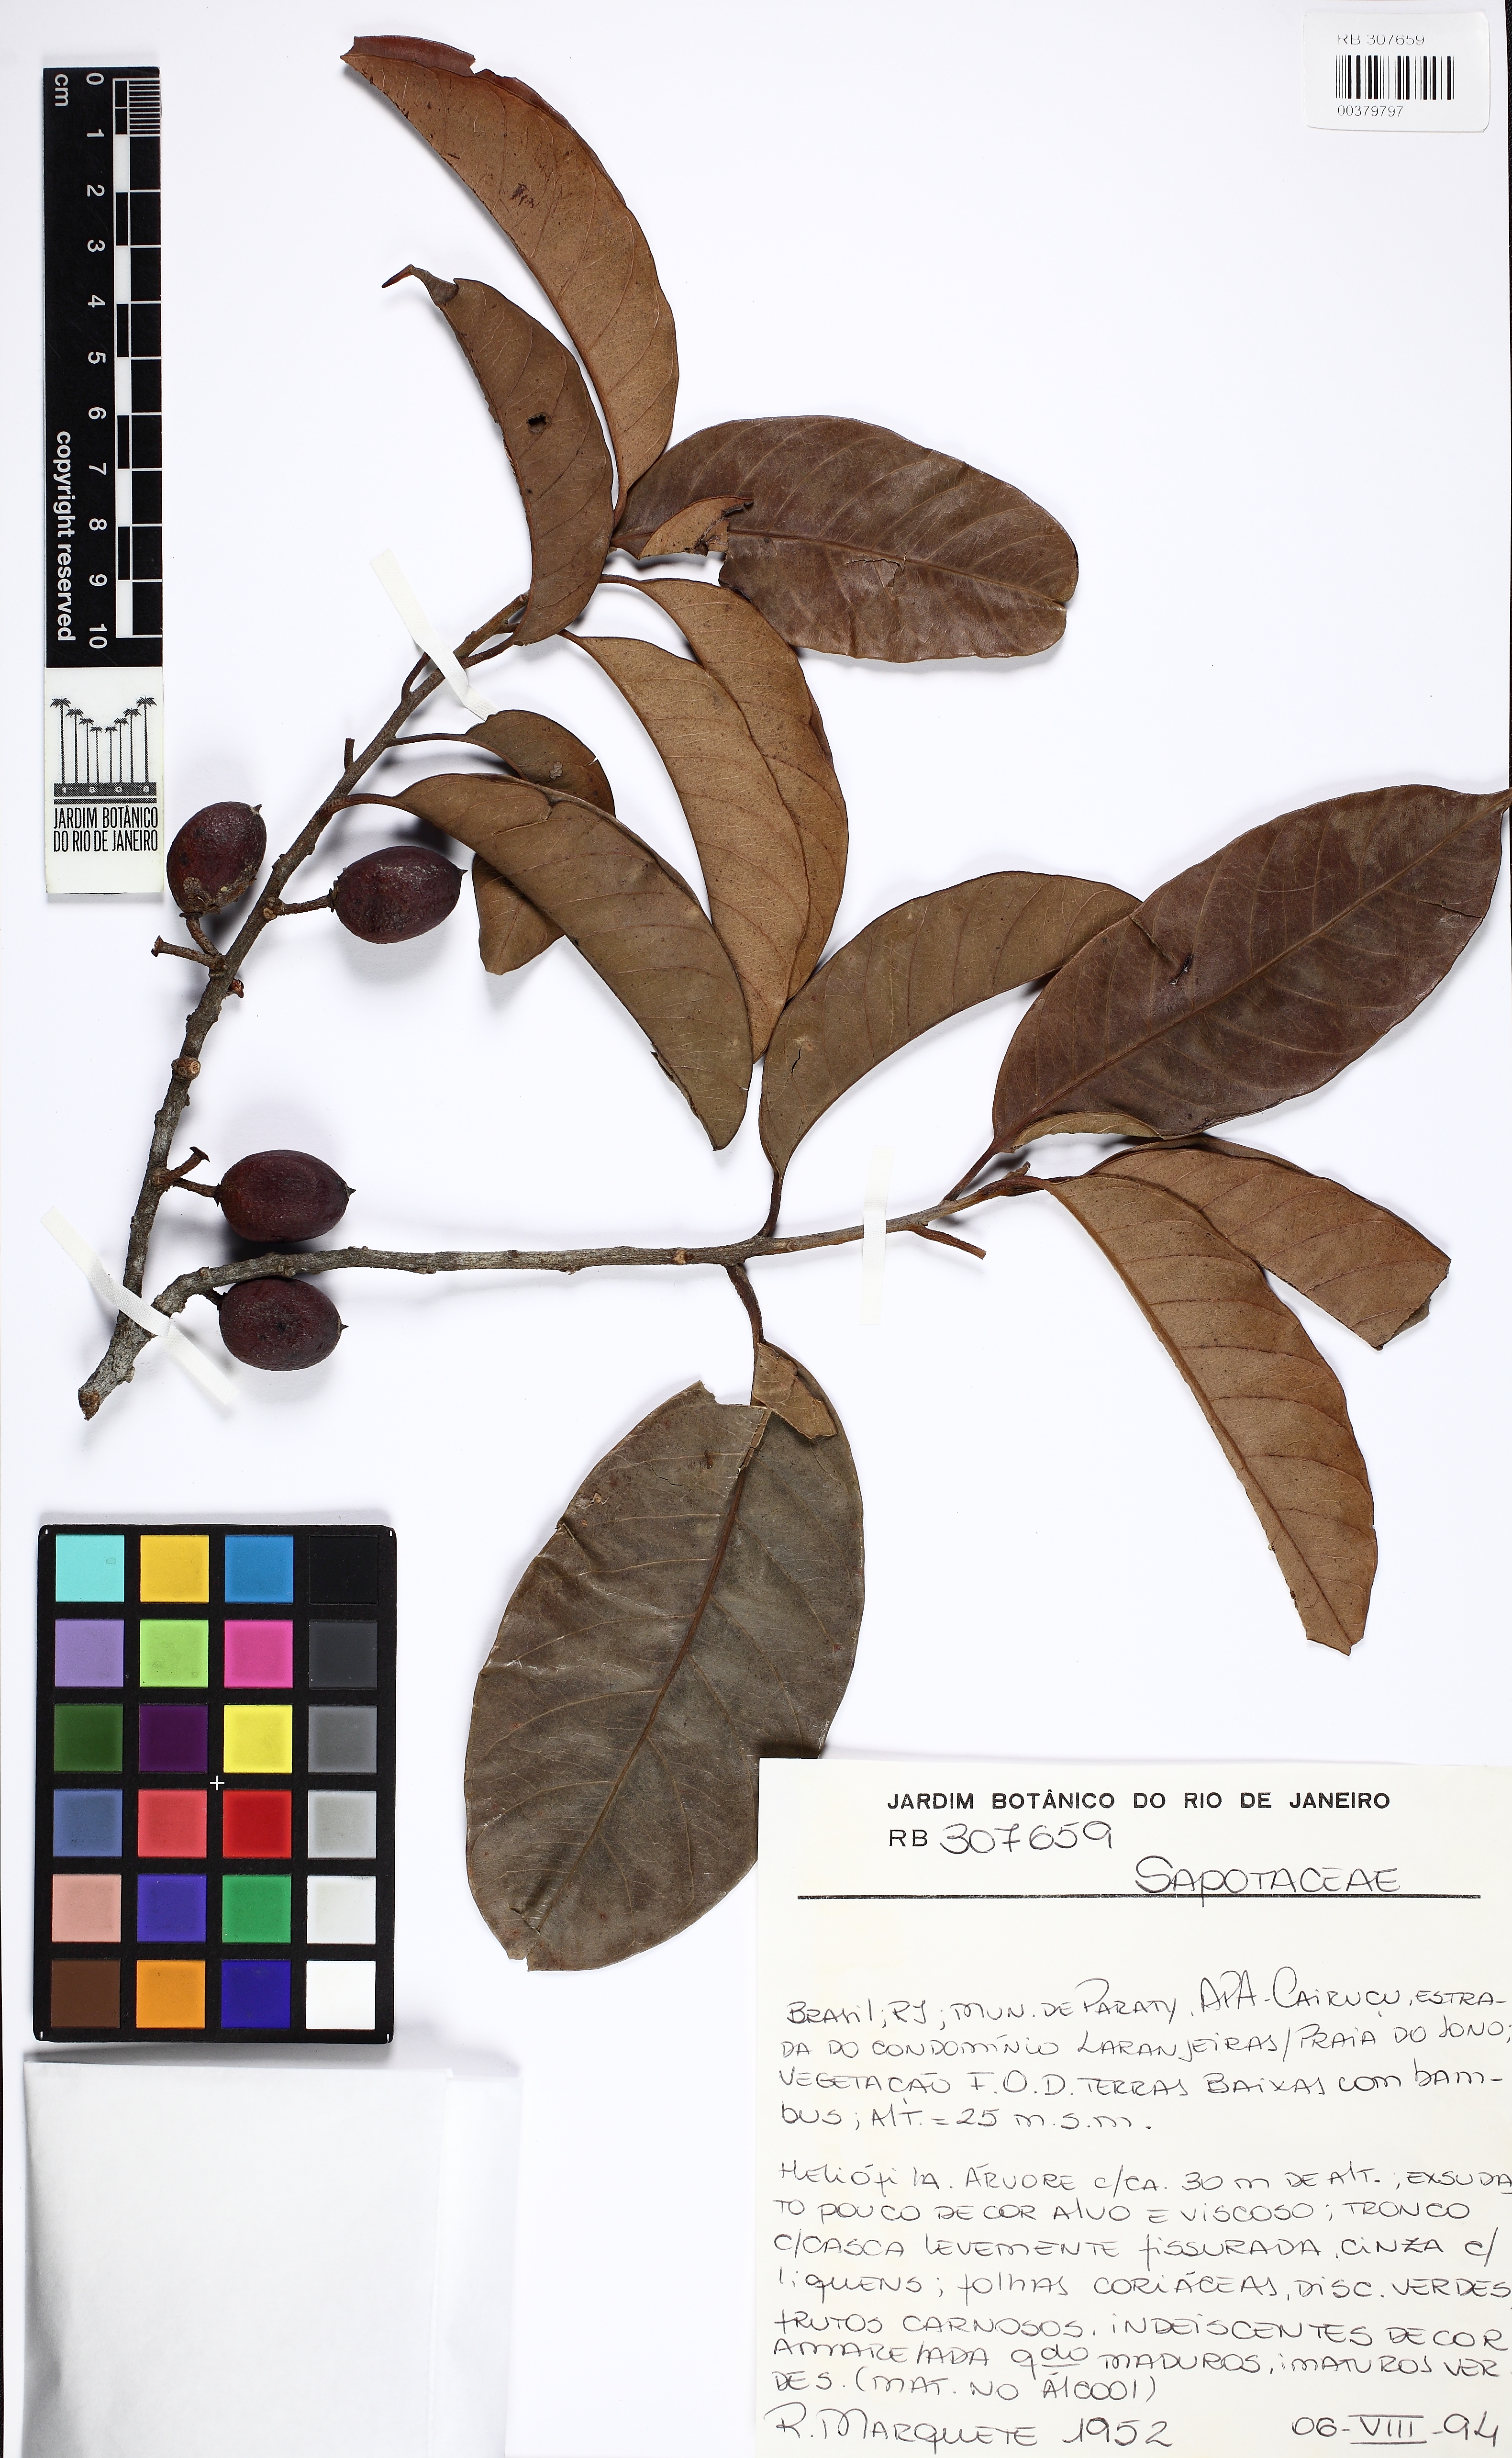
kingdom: Plantae
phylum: Tracheophyta
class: Magnoliopsida
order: Ericales
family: Sapotaceae
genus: Pouteria
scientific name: Pouteria bangii
